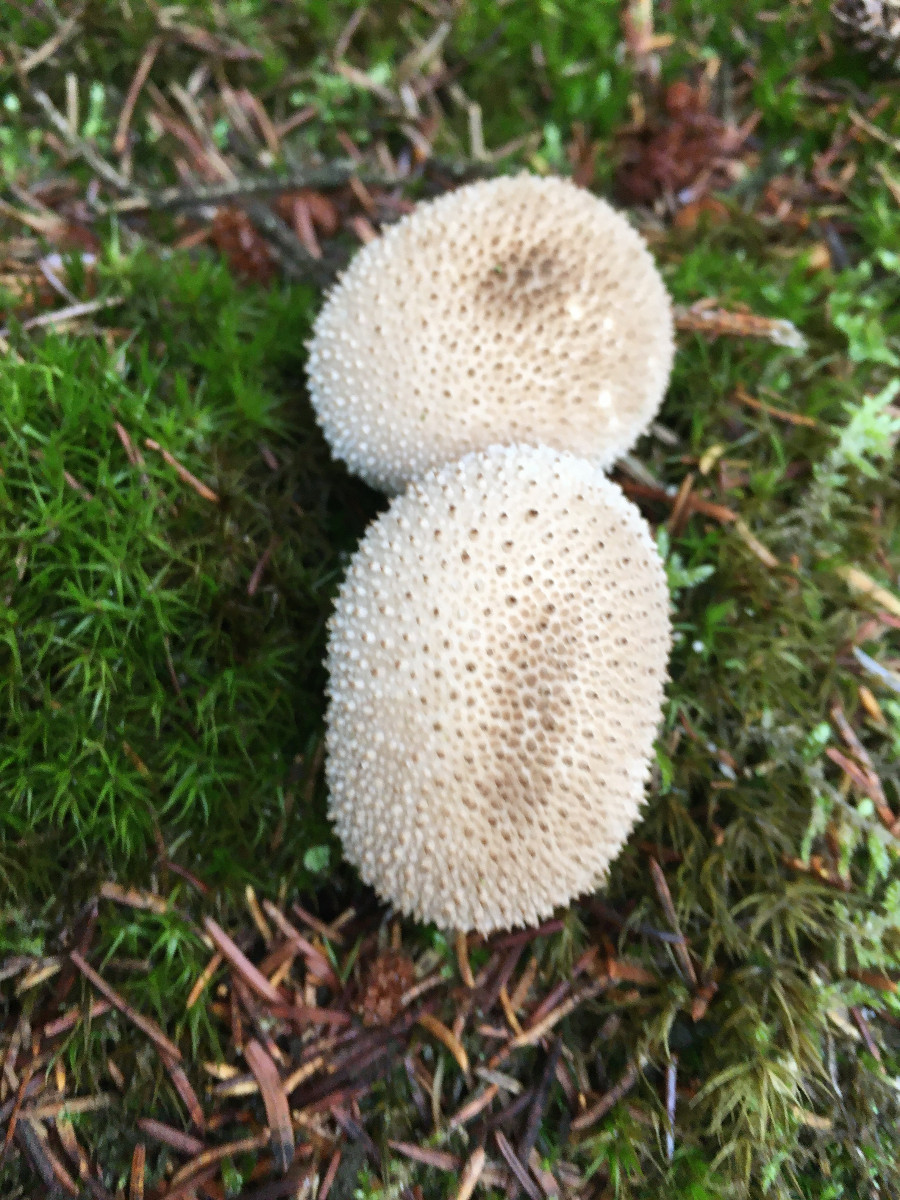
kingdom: Fungi
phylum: Basidiomycota
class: Agaricomycetes
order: Agaricales
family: Lycoperdaceae
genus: Lycoperdon
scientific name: Lycoperdon perlatum
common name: krystal-støvbold
